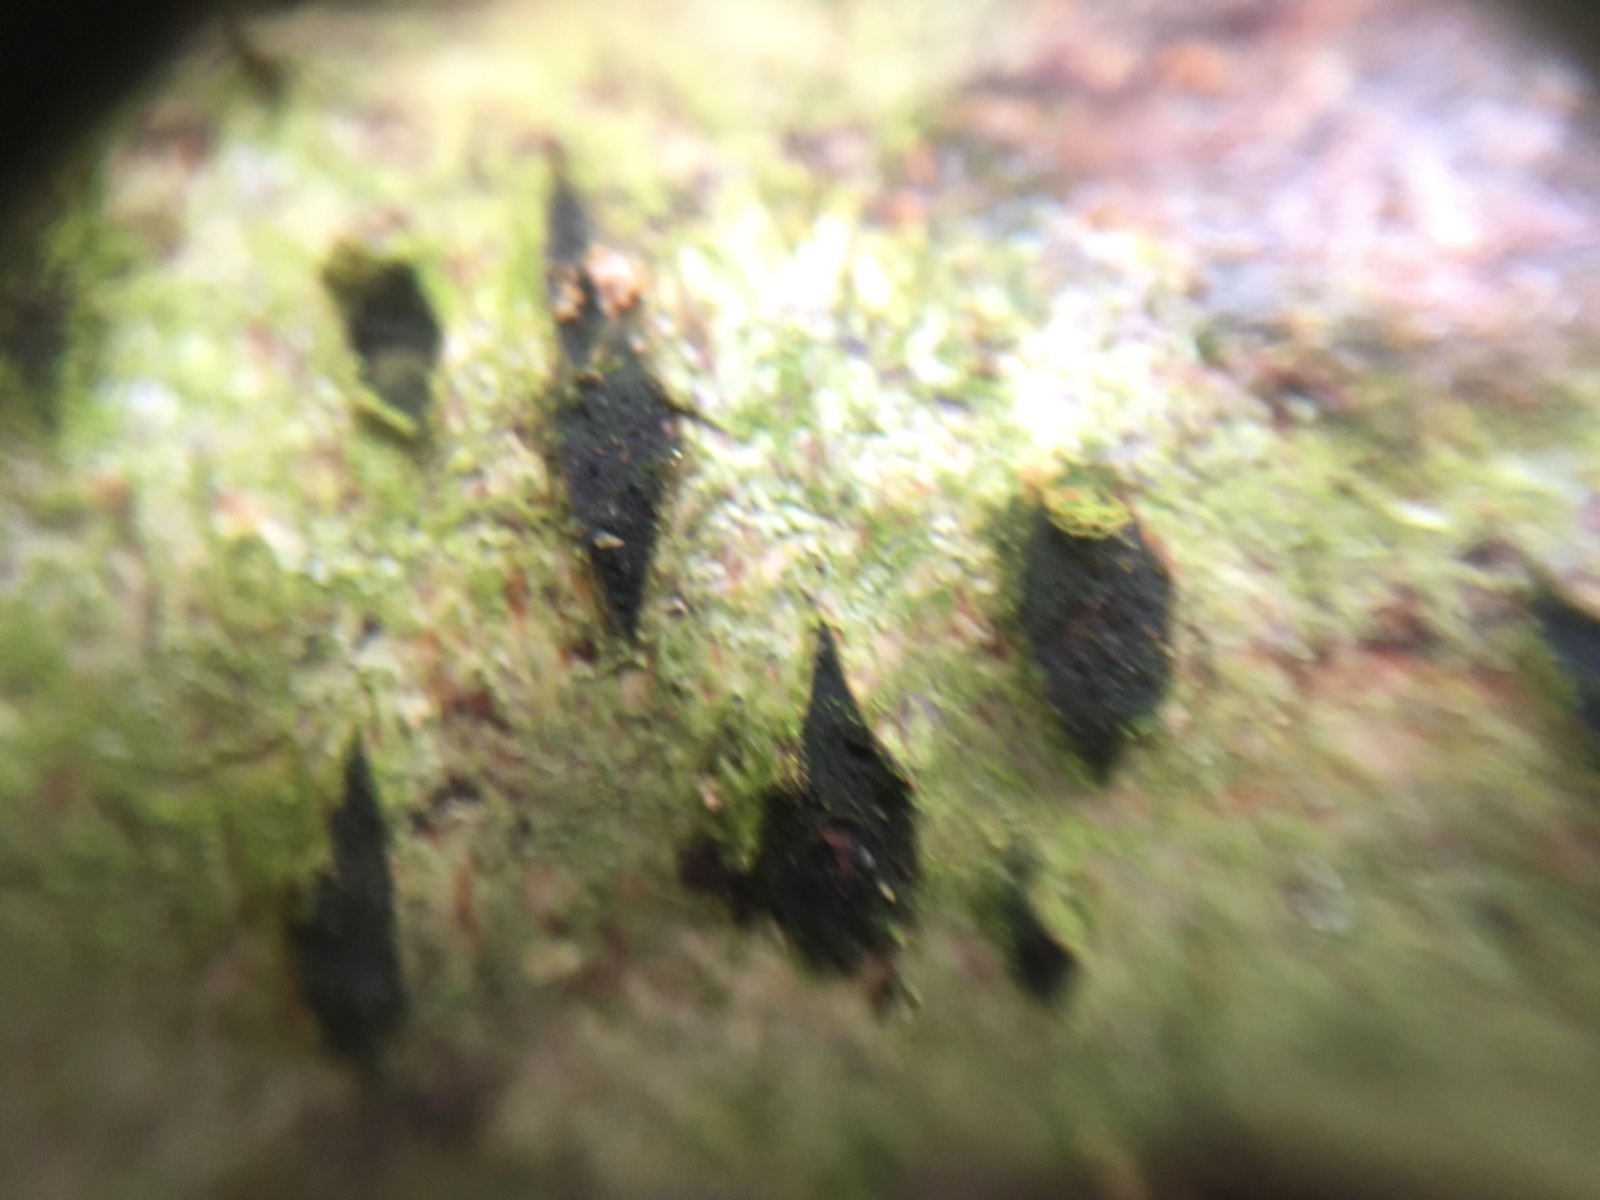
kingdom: Fungi
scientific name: Fungi
